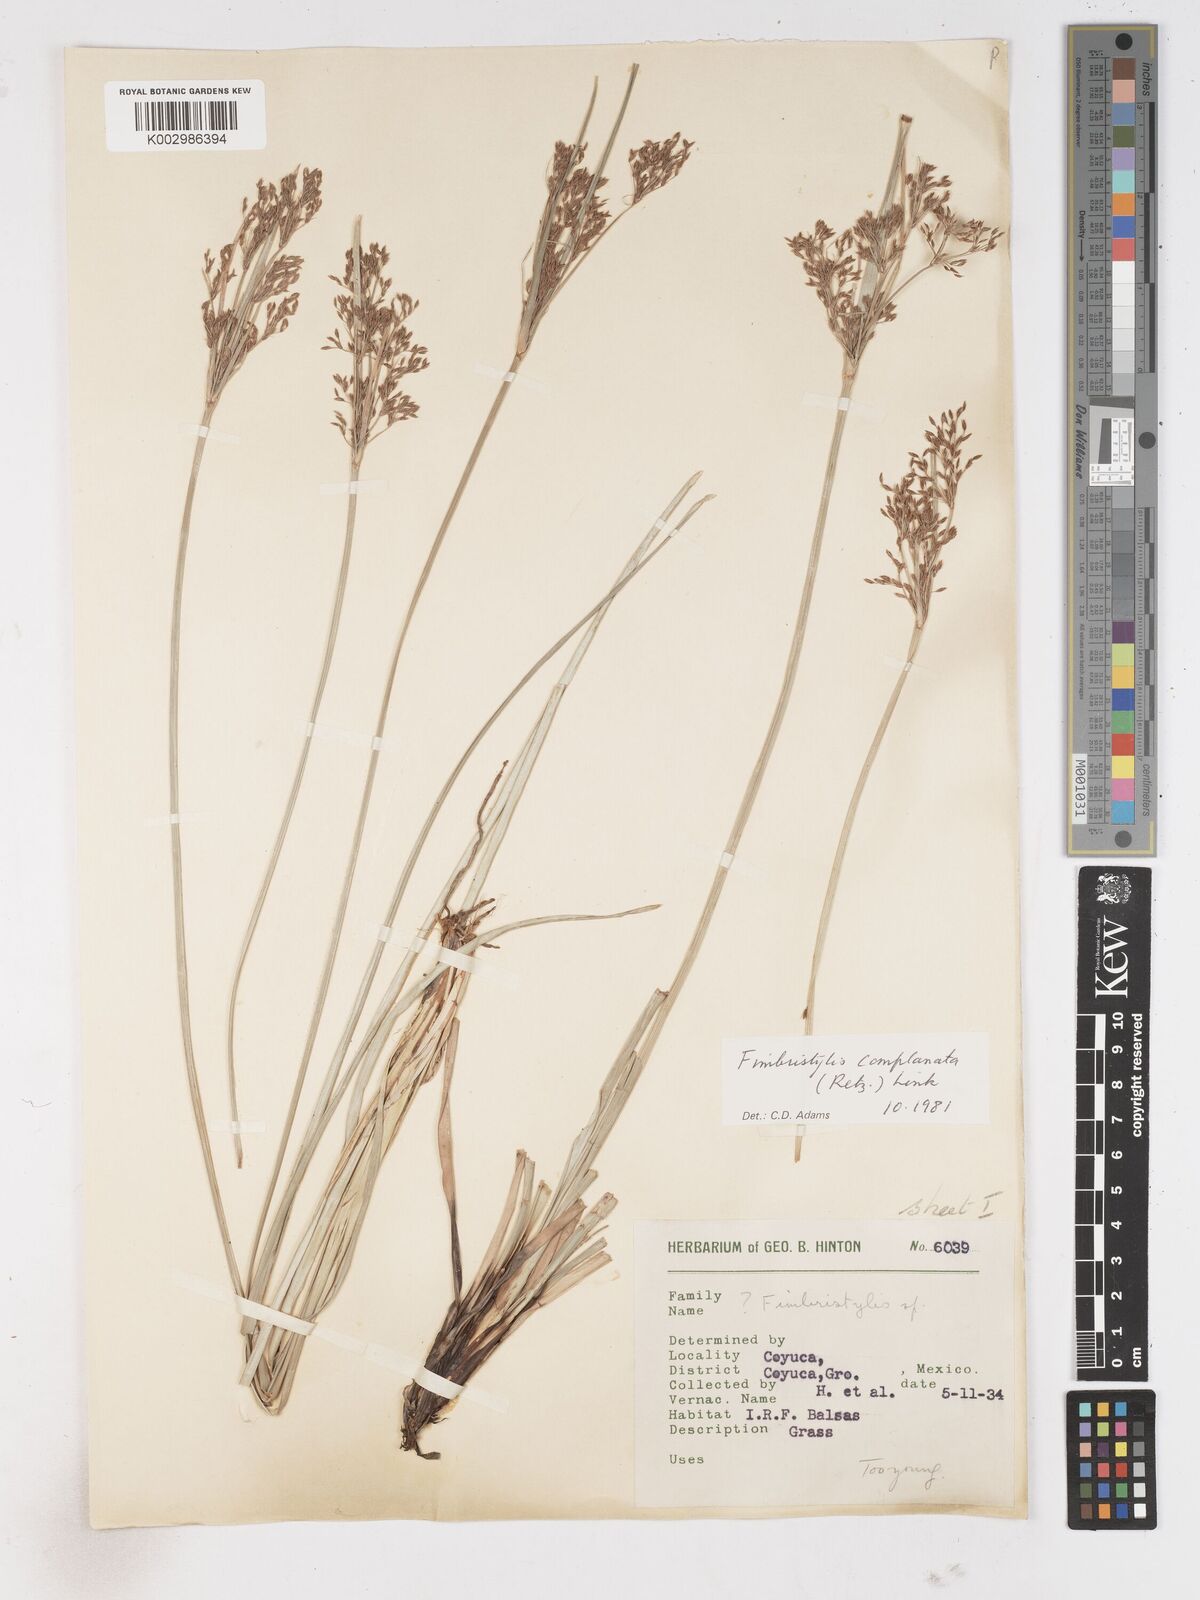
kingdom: Plantae
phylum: Tracheophyta
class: Liliopsida
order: Poales
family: Cyperaceae
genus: Fimbristylis
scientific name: Fimbristylis complanata
